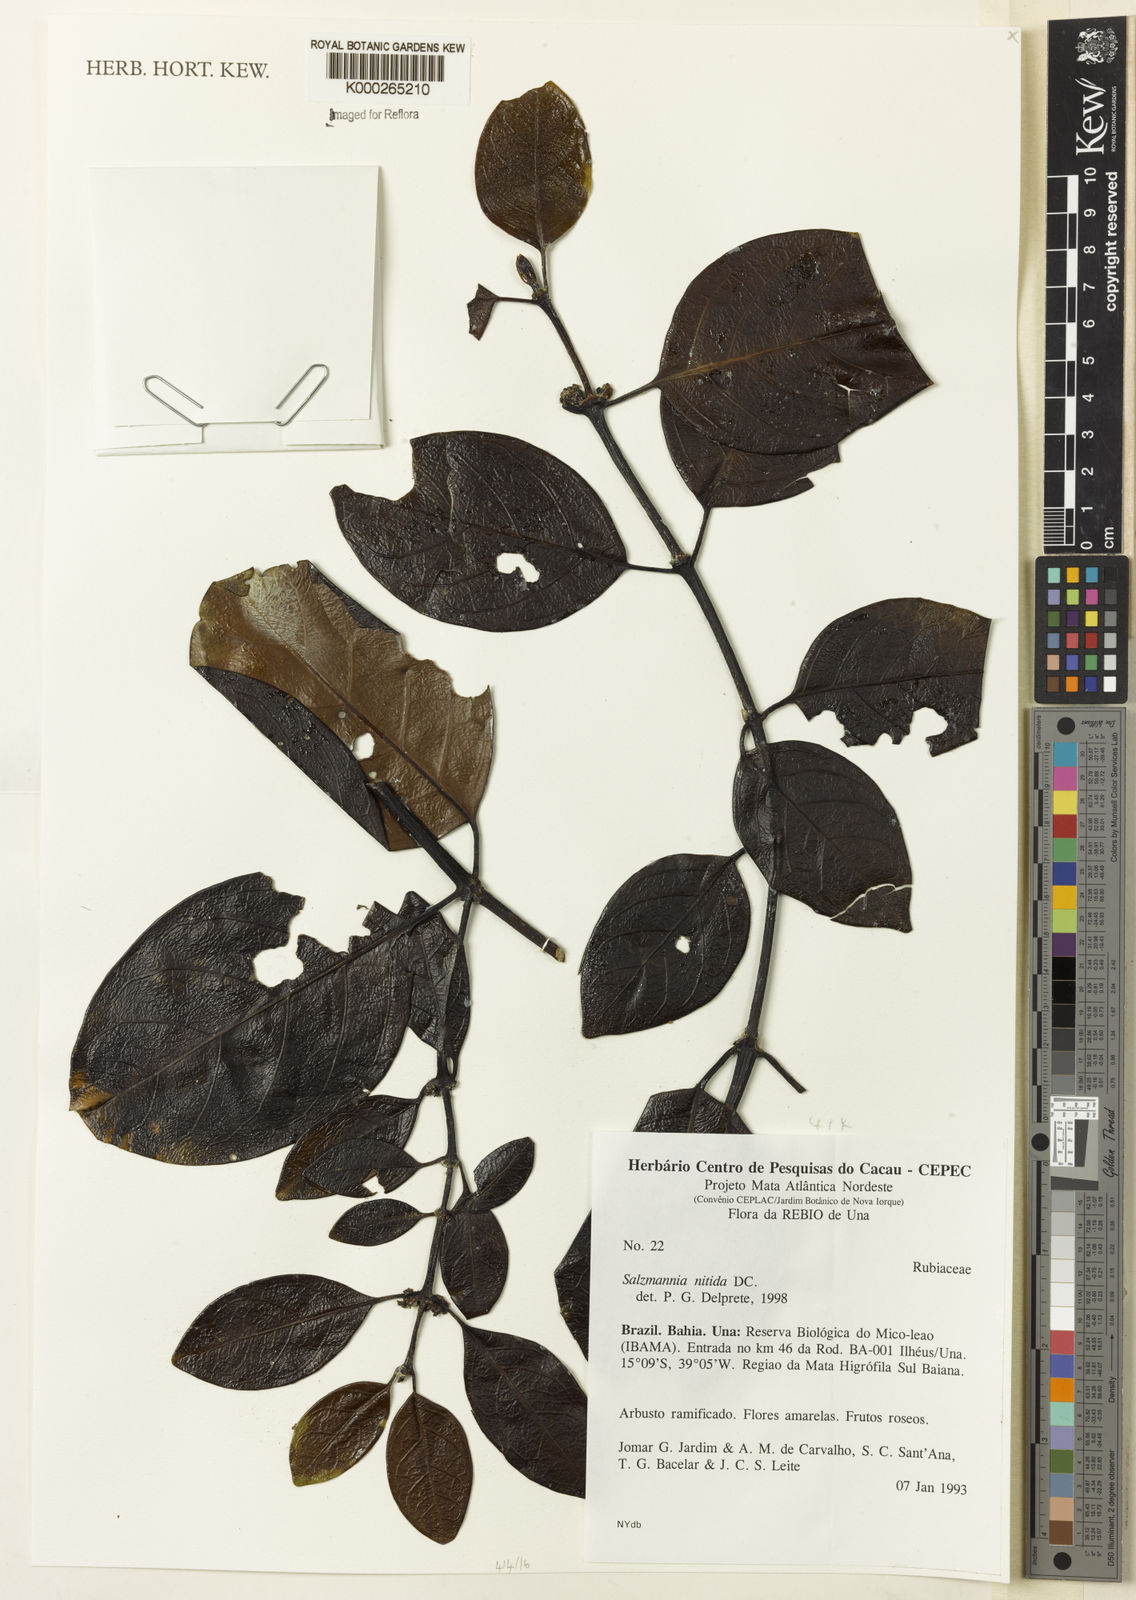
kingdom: Plantae
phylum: Tracheophyta
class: Magnoliopsida
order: Gentianales
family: Rubiaceae
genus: Salzmannia
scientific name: Salzmannia nitida
